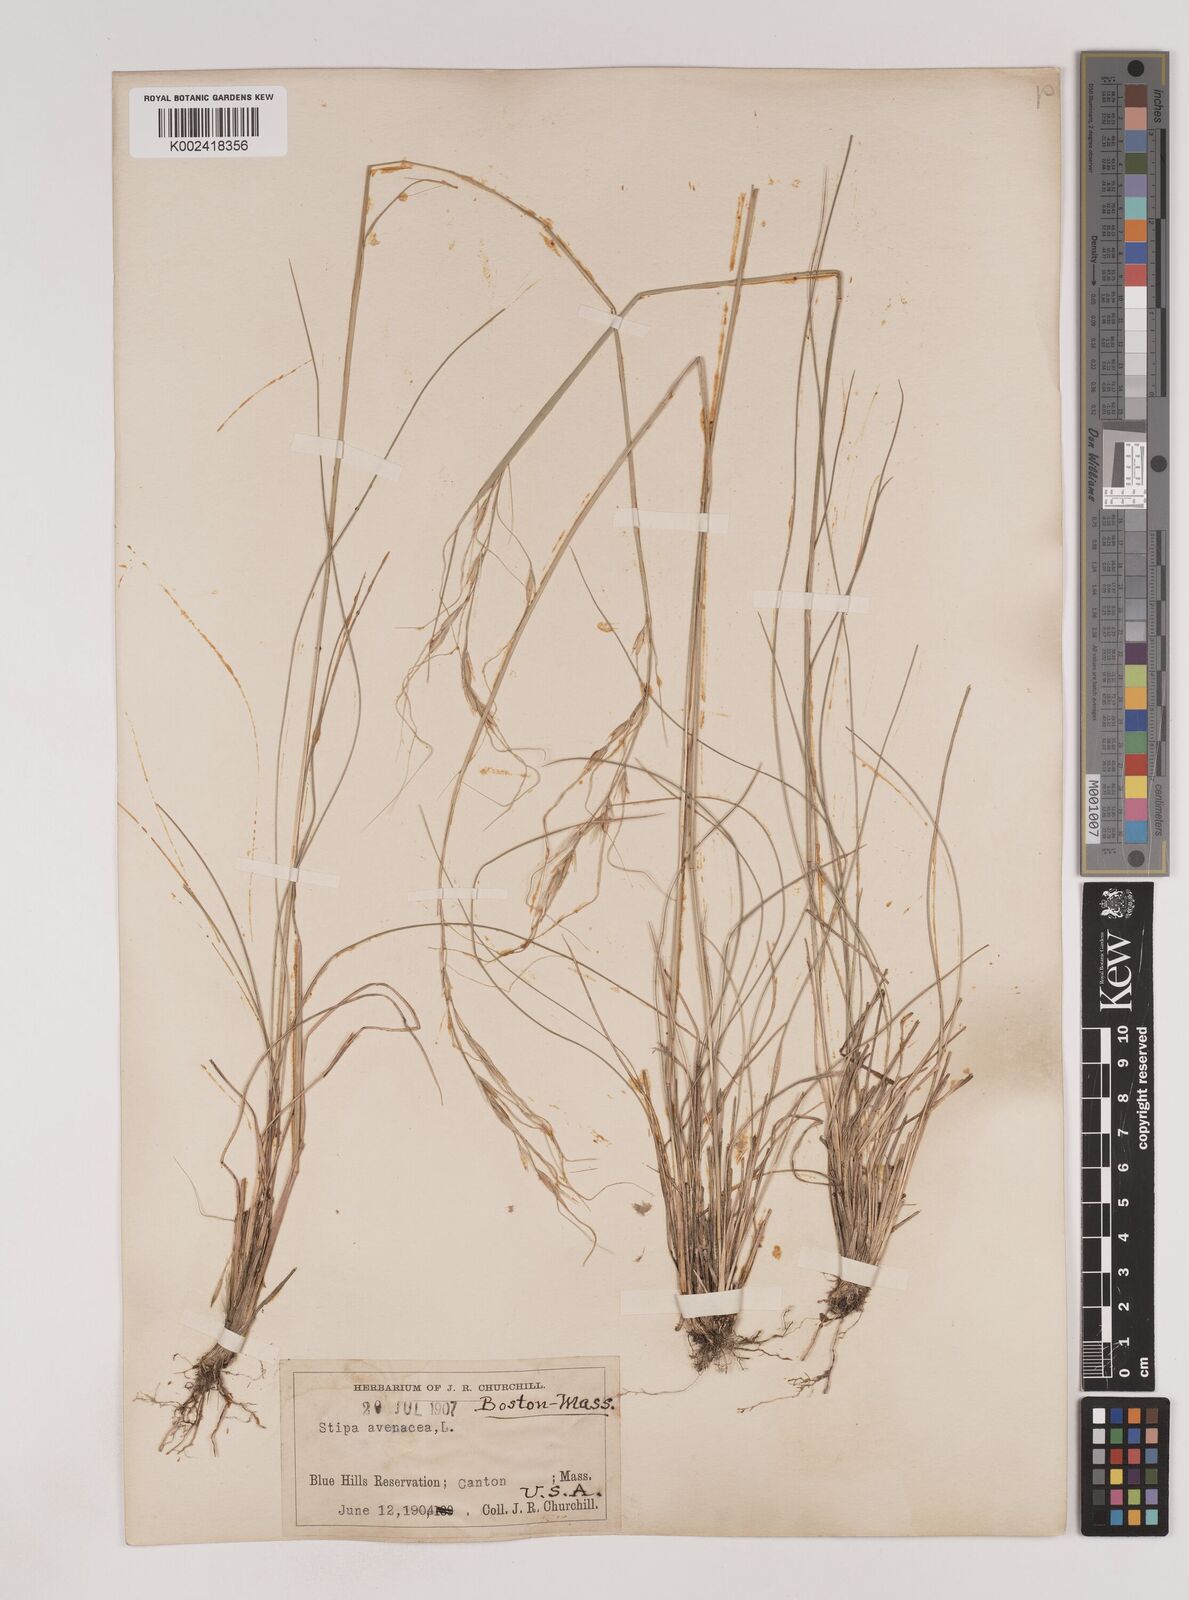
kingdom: Plantae
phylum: Tracheophyta
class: Liliopsida
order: Poales
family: Poaceae
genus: Piptochaetium
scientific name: Piptochaetium avenaceum
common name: Black bunchgrass
